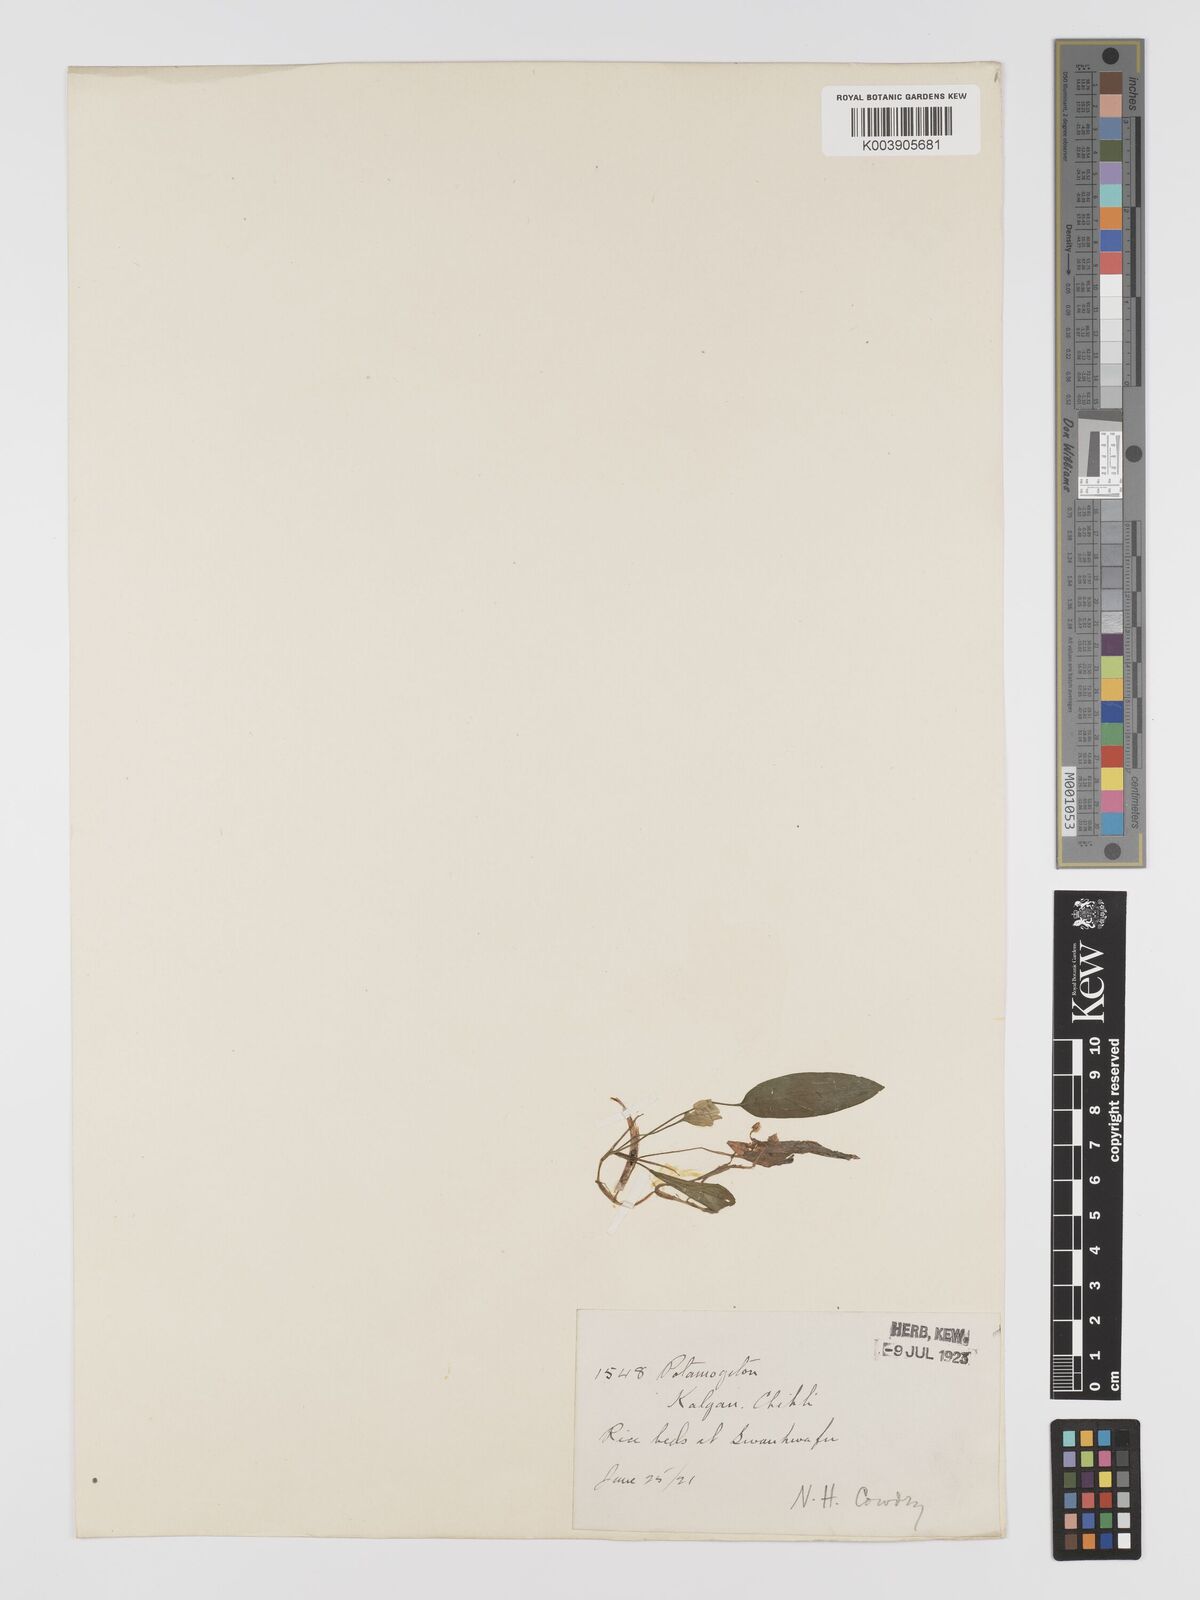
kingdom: Plantae
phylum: Tracheophyta
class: Liliopsida
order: Alismatales
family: Potamogetonaceae
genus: Potamogeton
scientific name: Potamogeton distinctus
